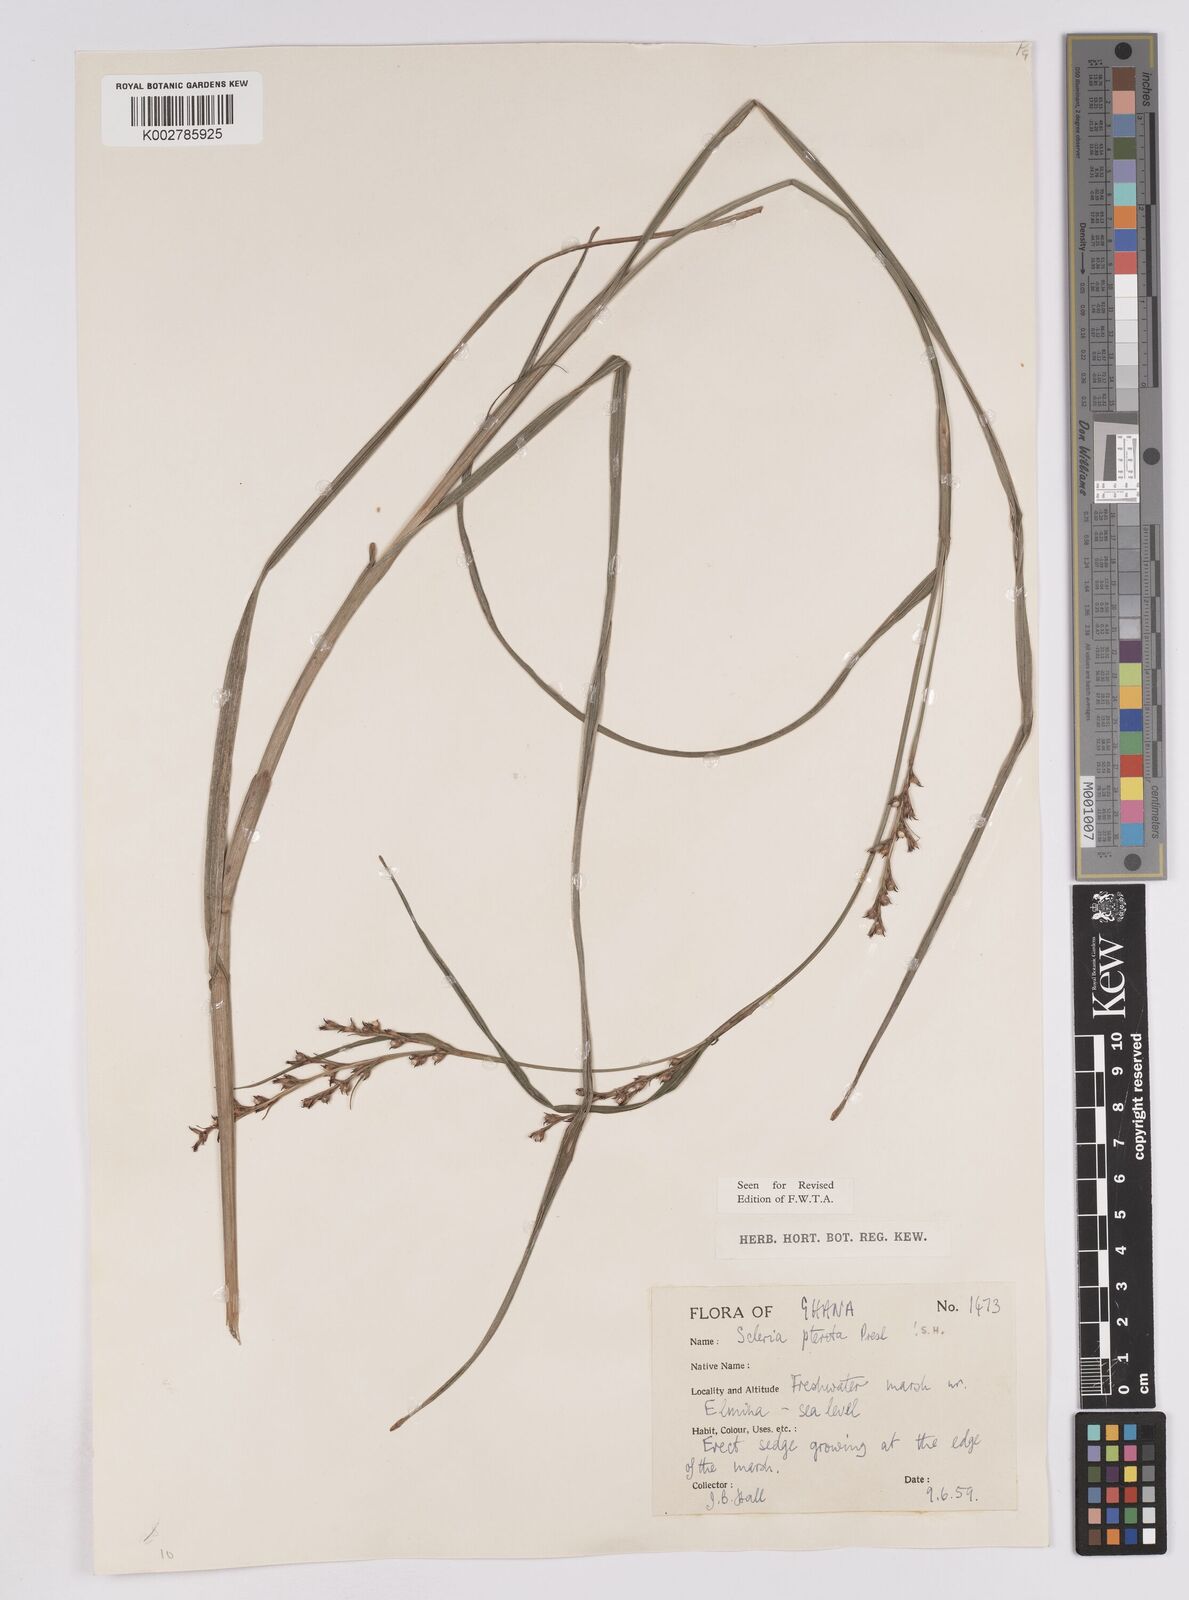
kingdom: Plantae
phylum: Tracheophyta
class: Liliopsida
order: Poales
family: Cyperaceae
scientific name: Cyperaceae
